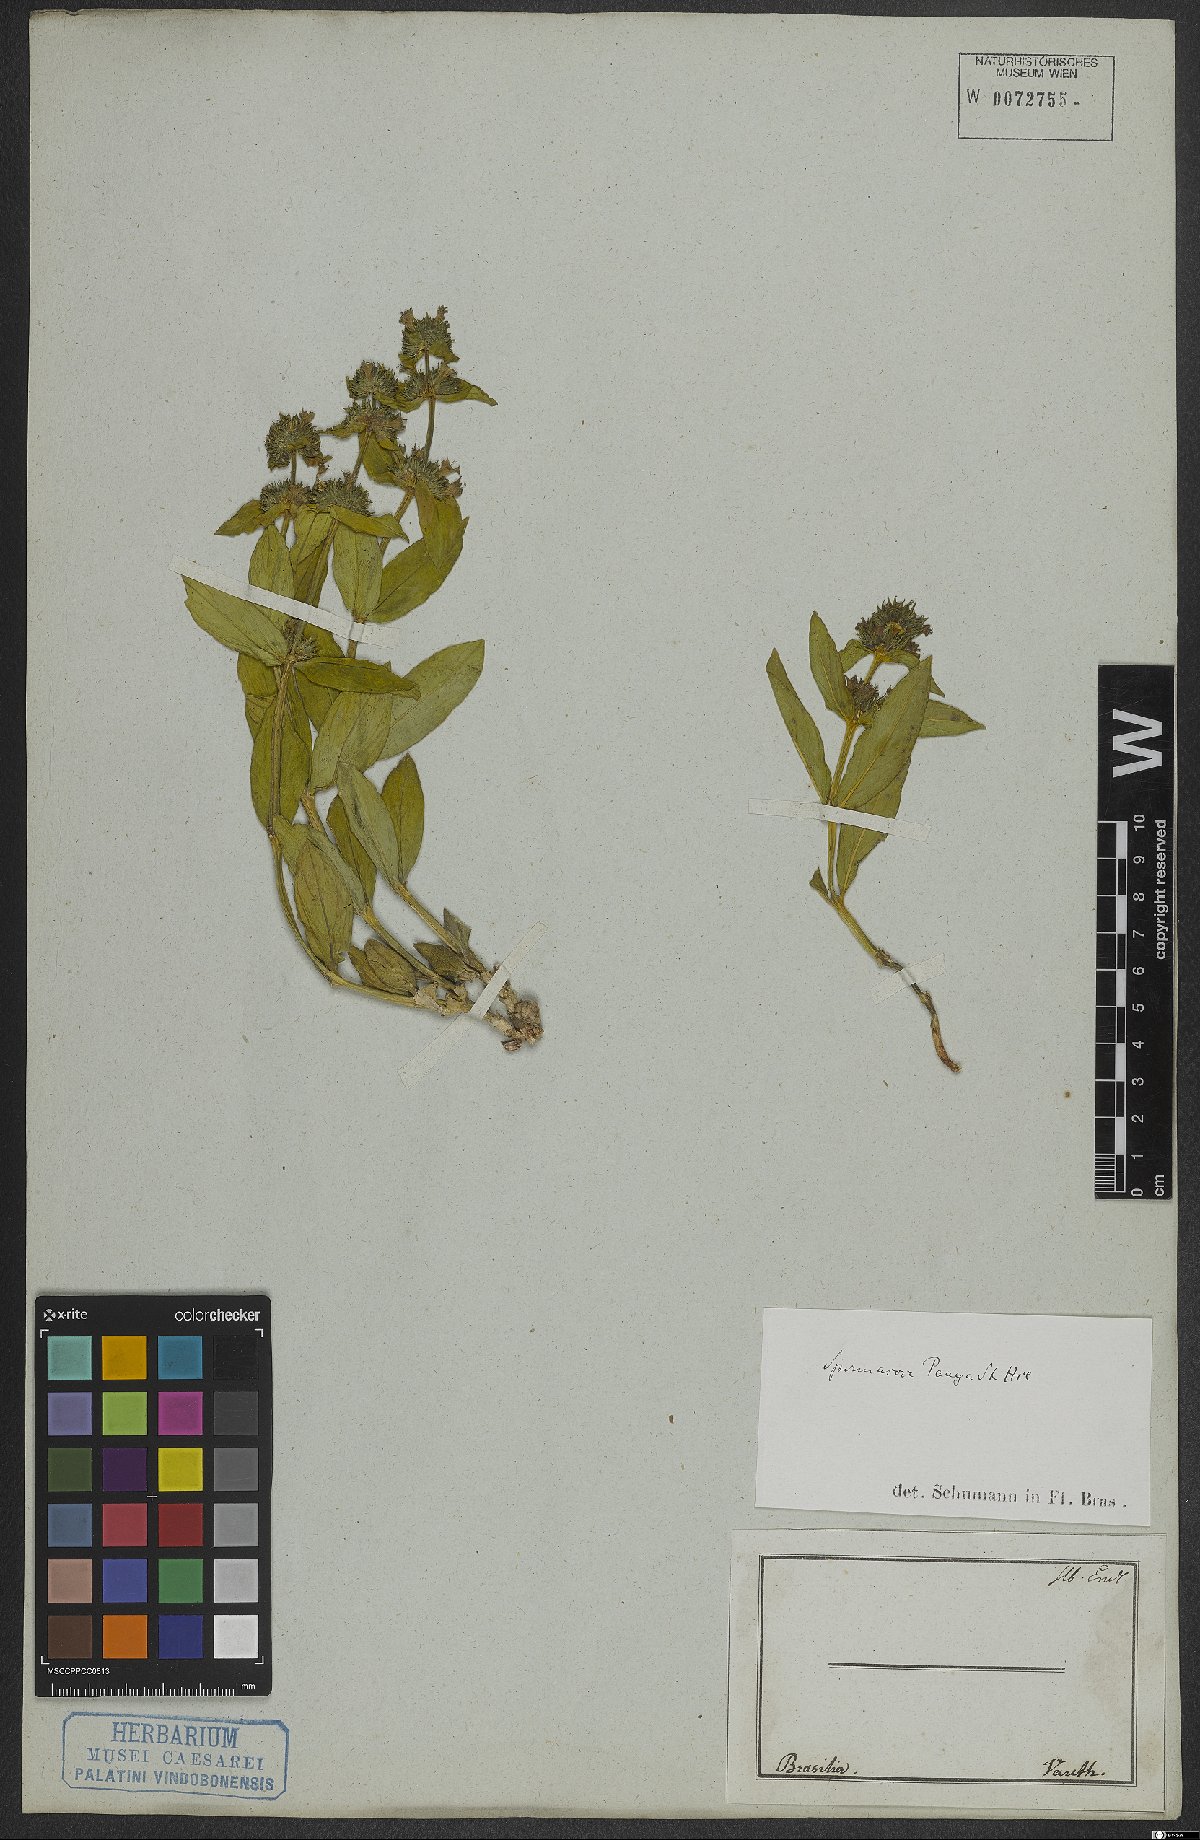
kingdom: Plantae
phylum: Tracheophyta
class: Magnoliopsida
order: Gentianales
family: Rubiaceae
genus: Spermacoce
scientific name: Spermacoce poaya
